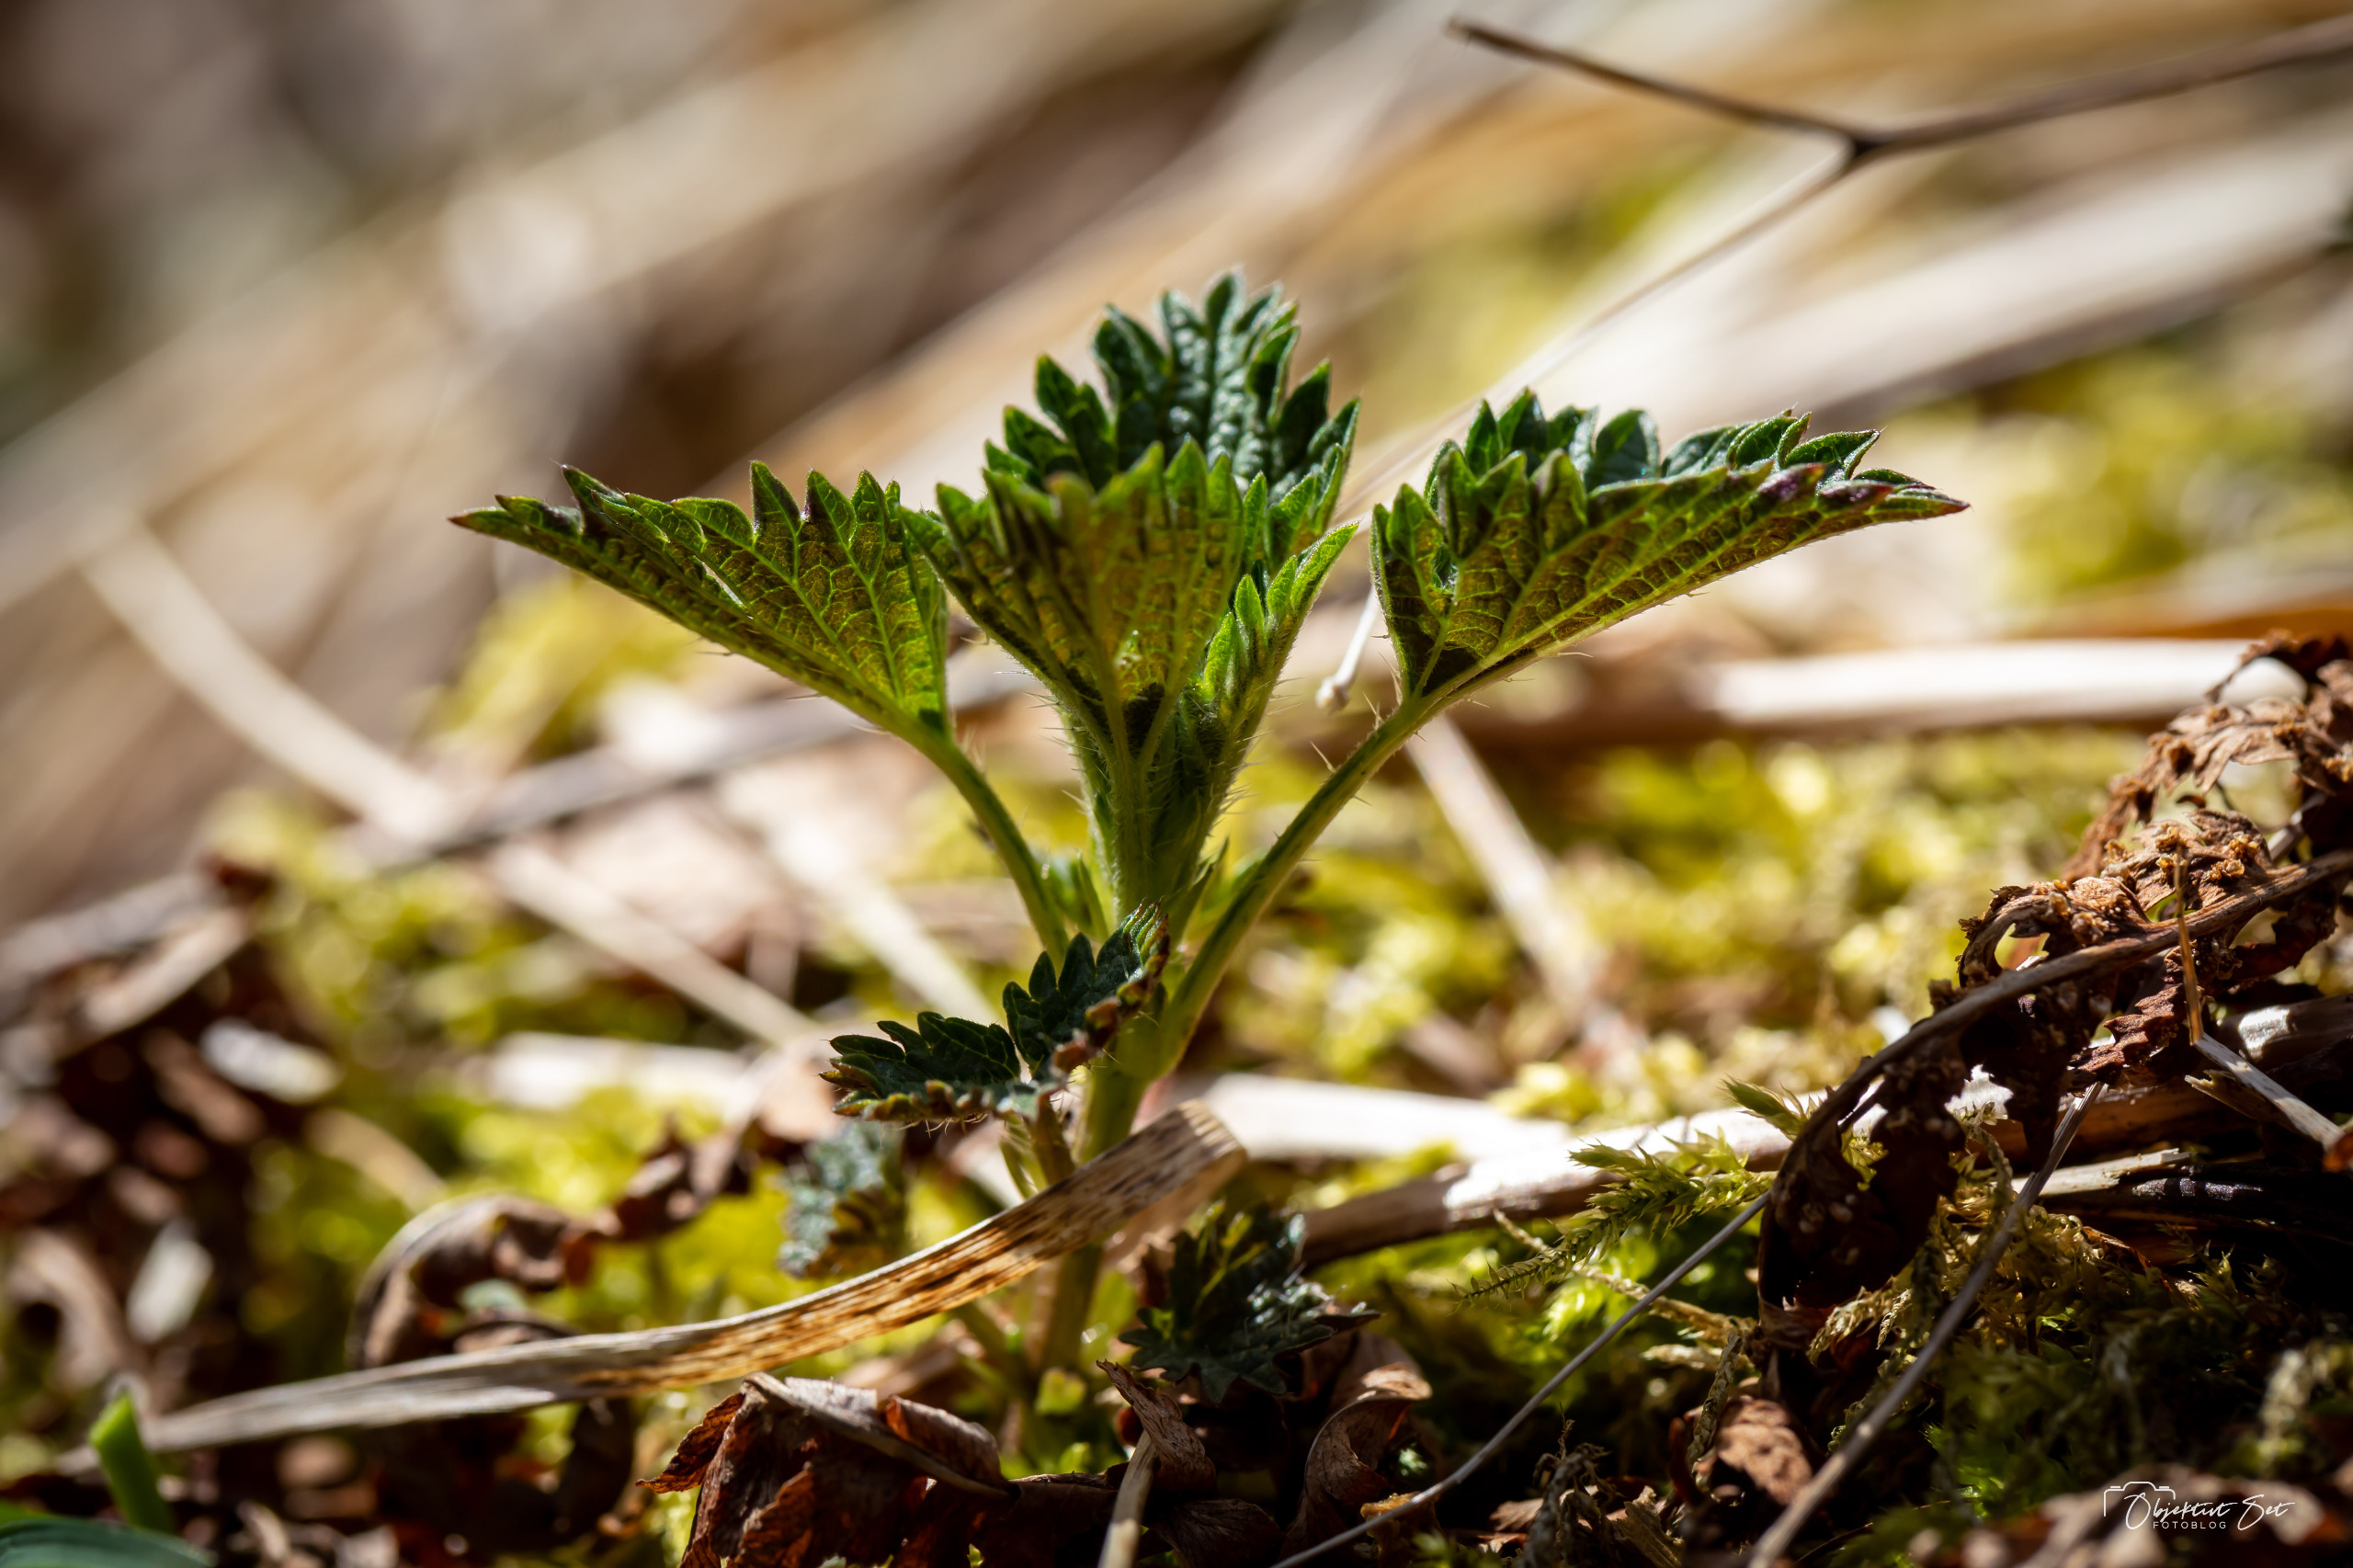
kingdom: Plantae
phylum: Tracheophyta
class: Magnoliopsida
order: Rosales
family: Urticaceae
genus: Urtica
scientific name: Urtica dioica
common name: Stor nælde
